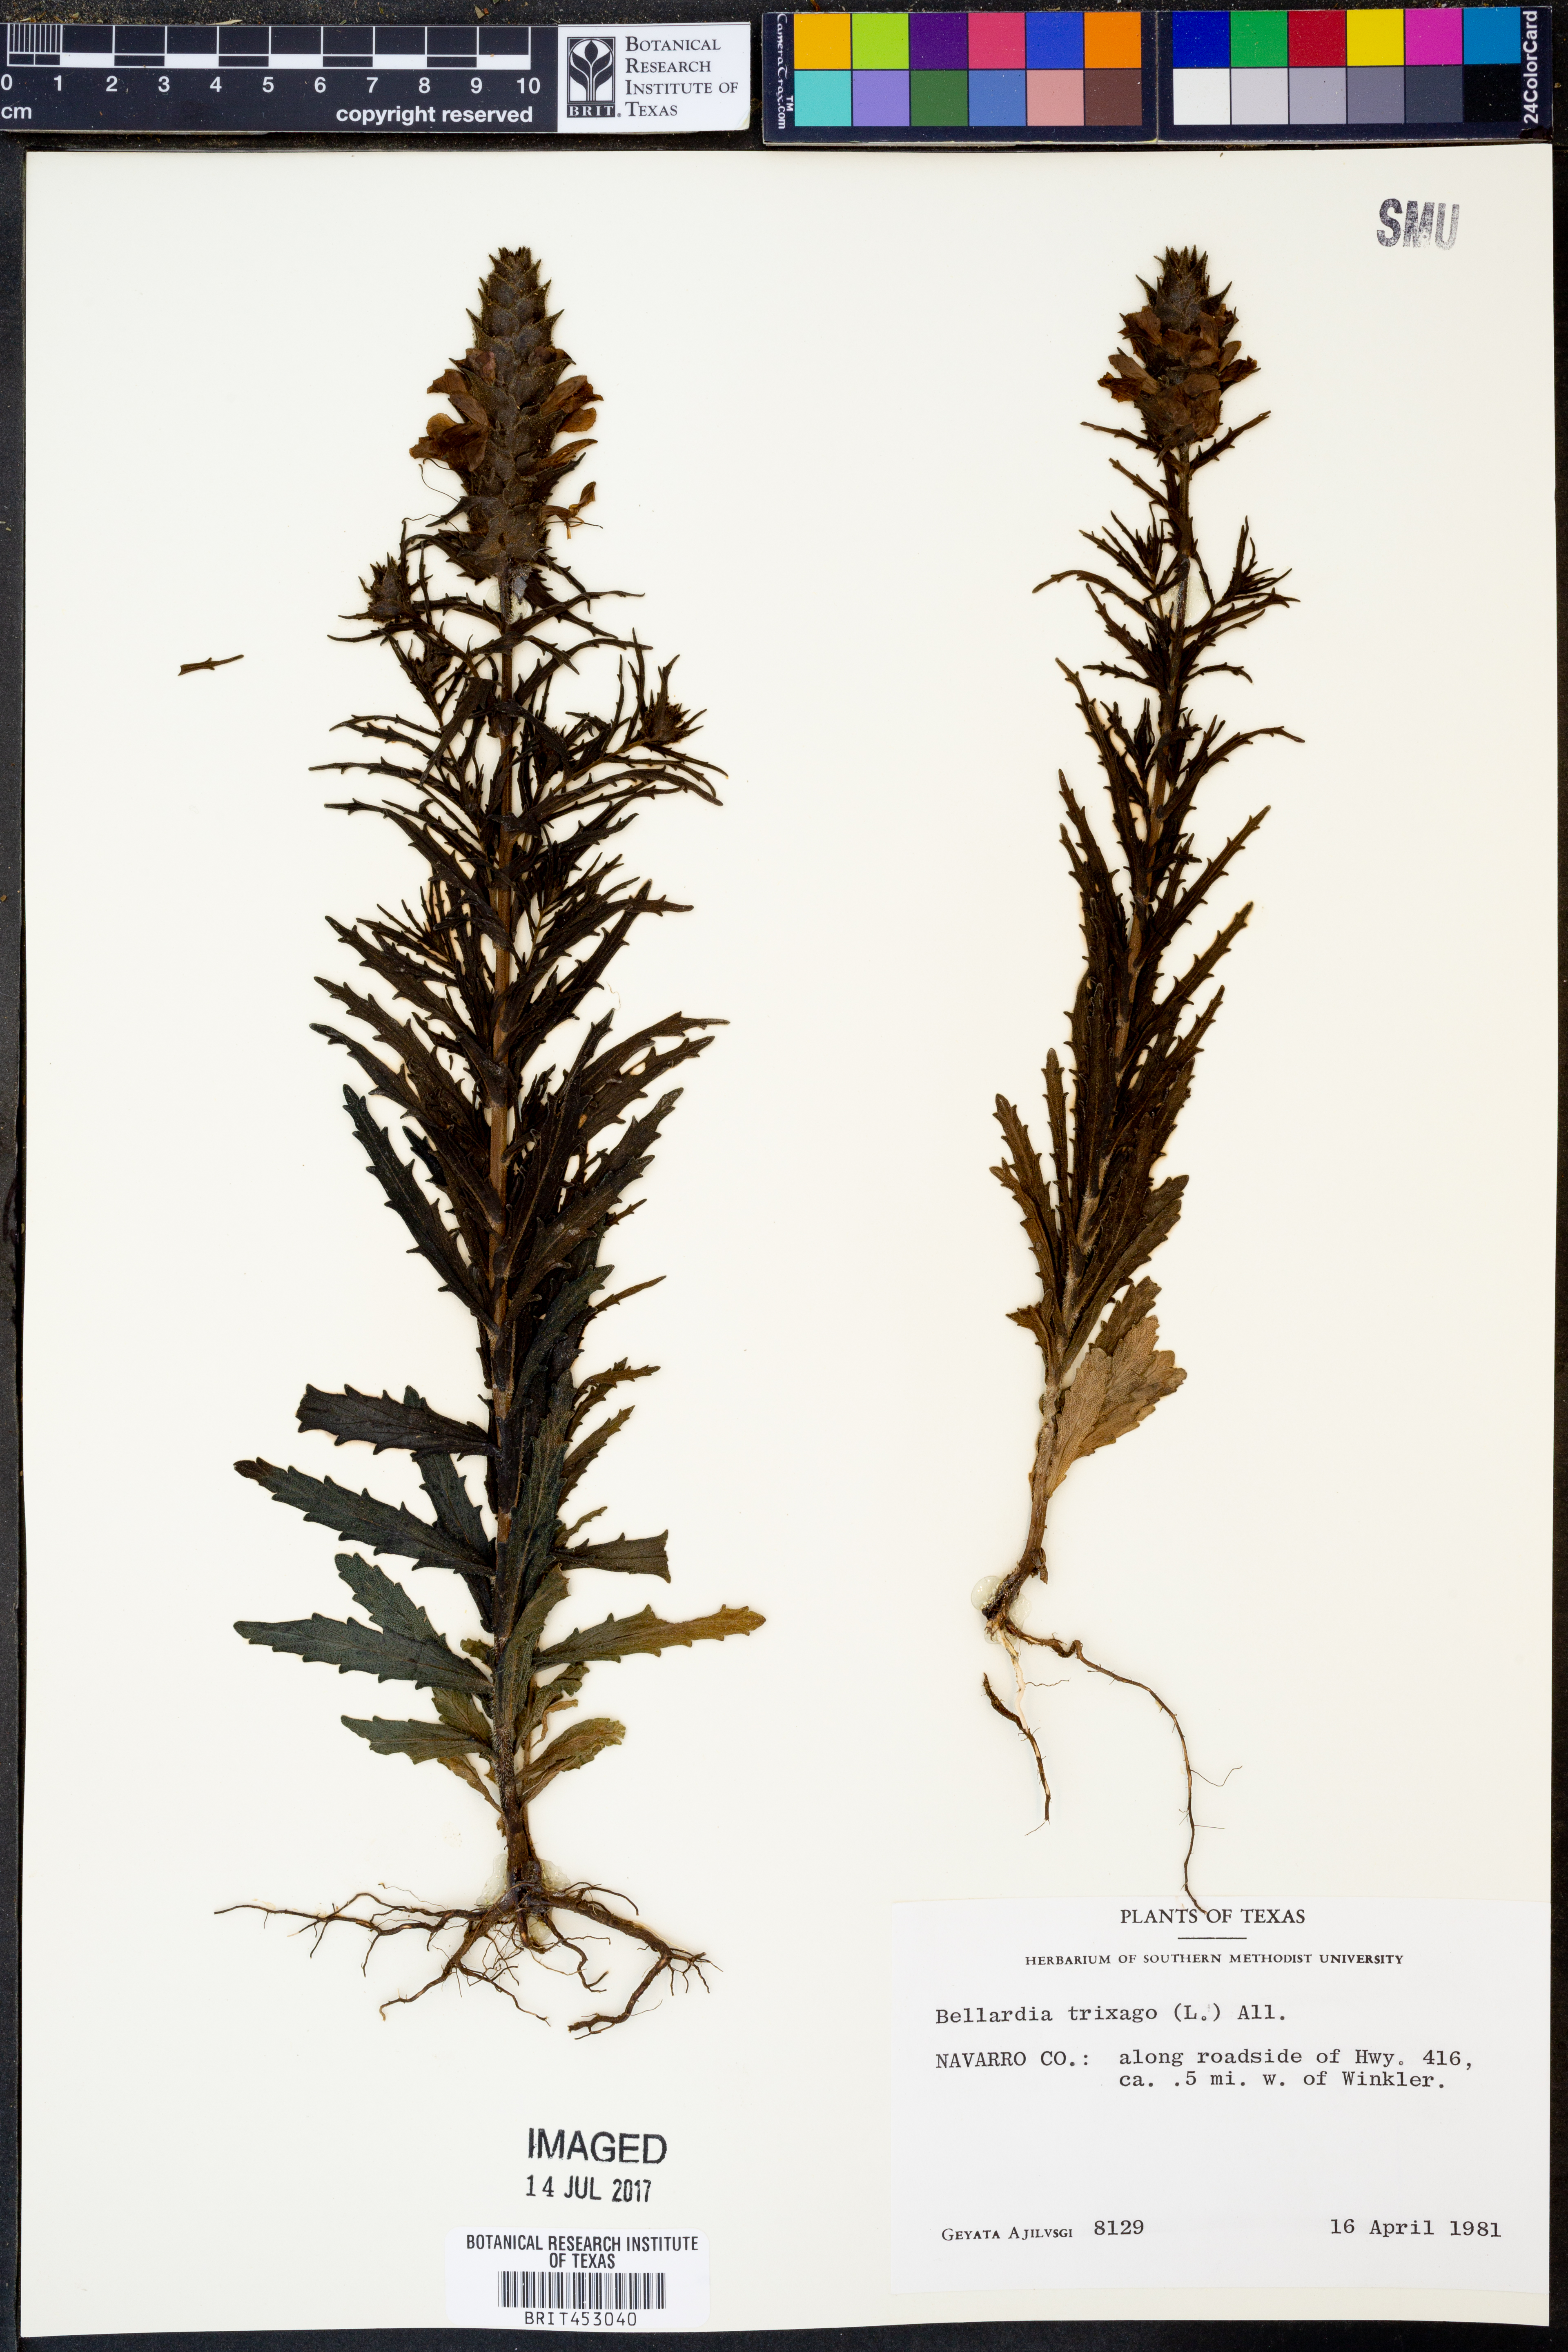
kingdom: Plantae
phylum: Tracheophyta
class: Magnoliopsida
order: Lamiales
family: Orobanchaceae
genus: Bellardia
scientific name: Bellardia trixago
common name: Mediterranean lineseed
